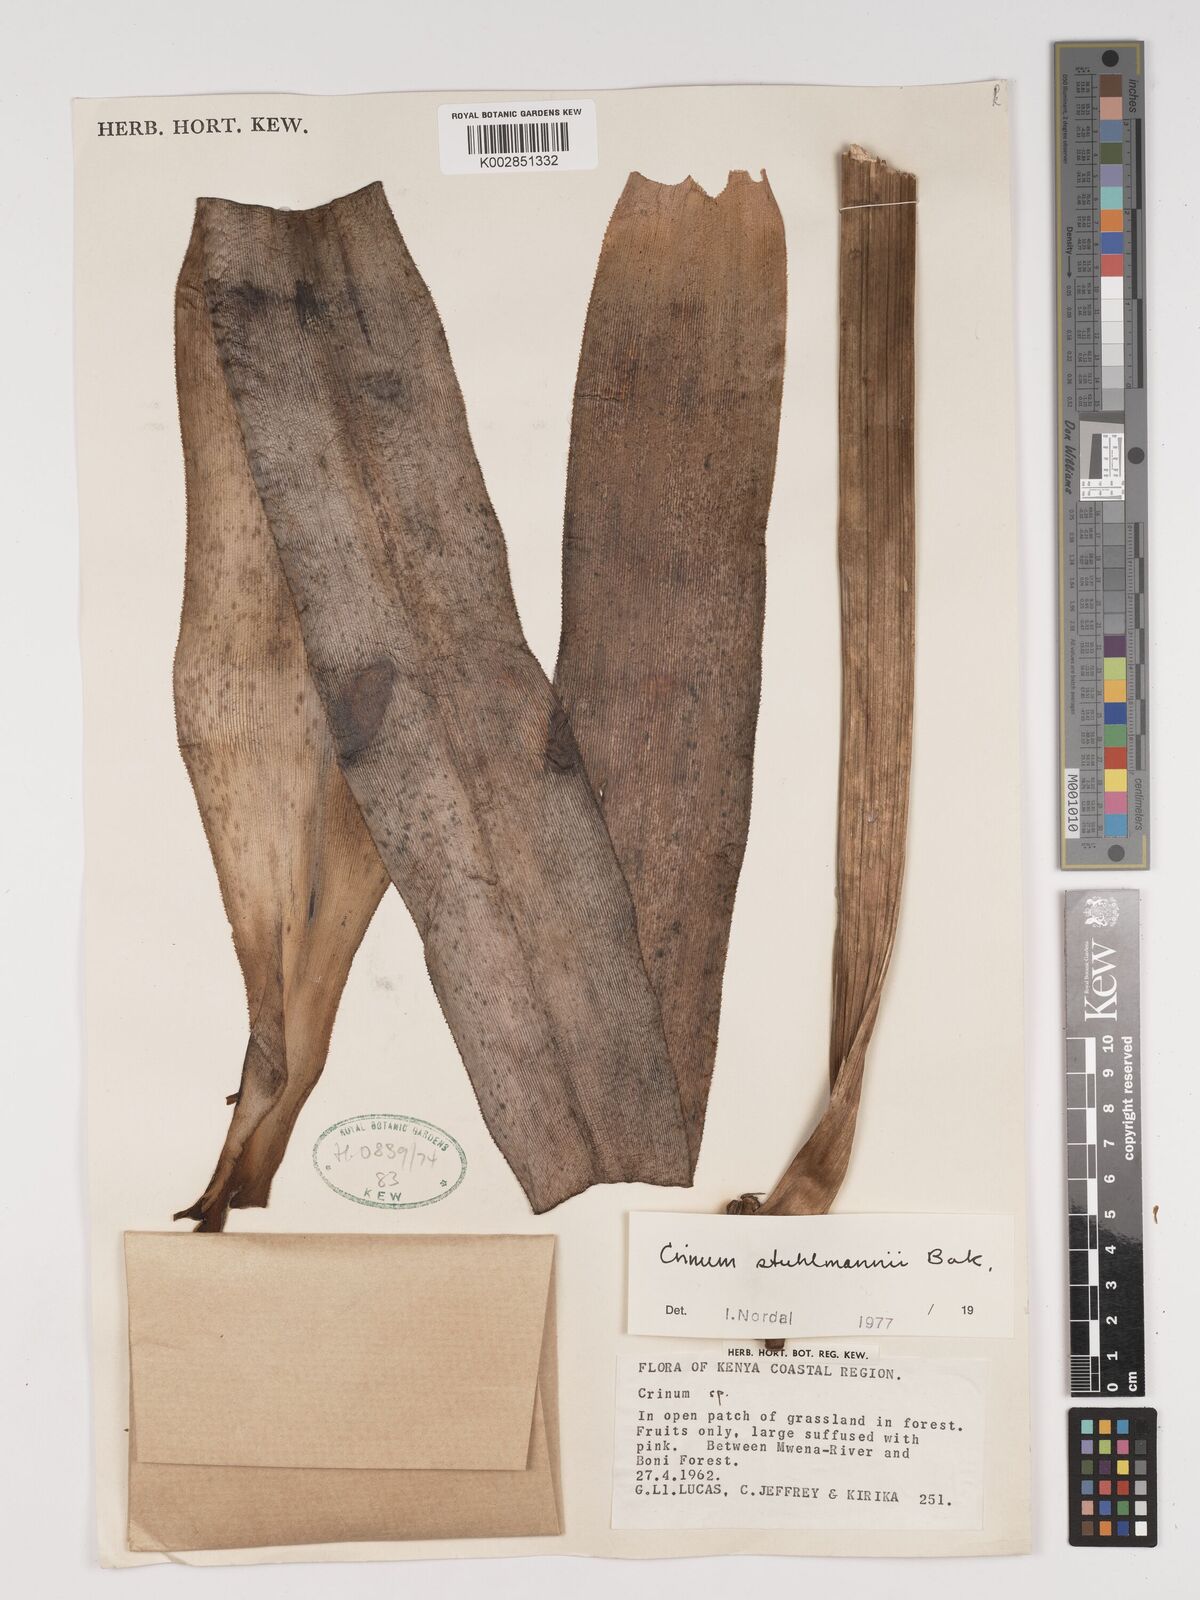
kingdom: Plantae
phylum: Tracheophyta
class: Liliopsida
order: Asparagales
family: Amaryllidaceae
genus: Crinum
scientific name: Crinum stuhlmannii
